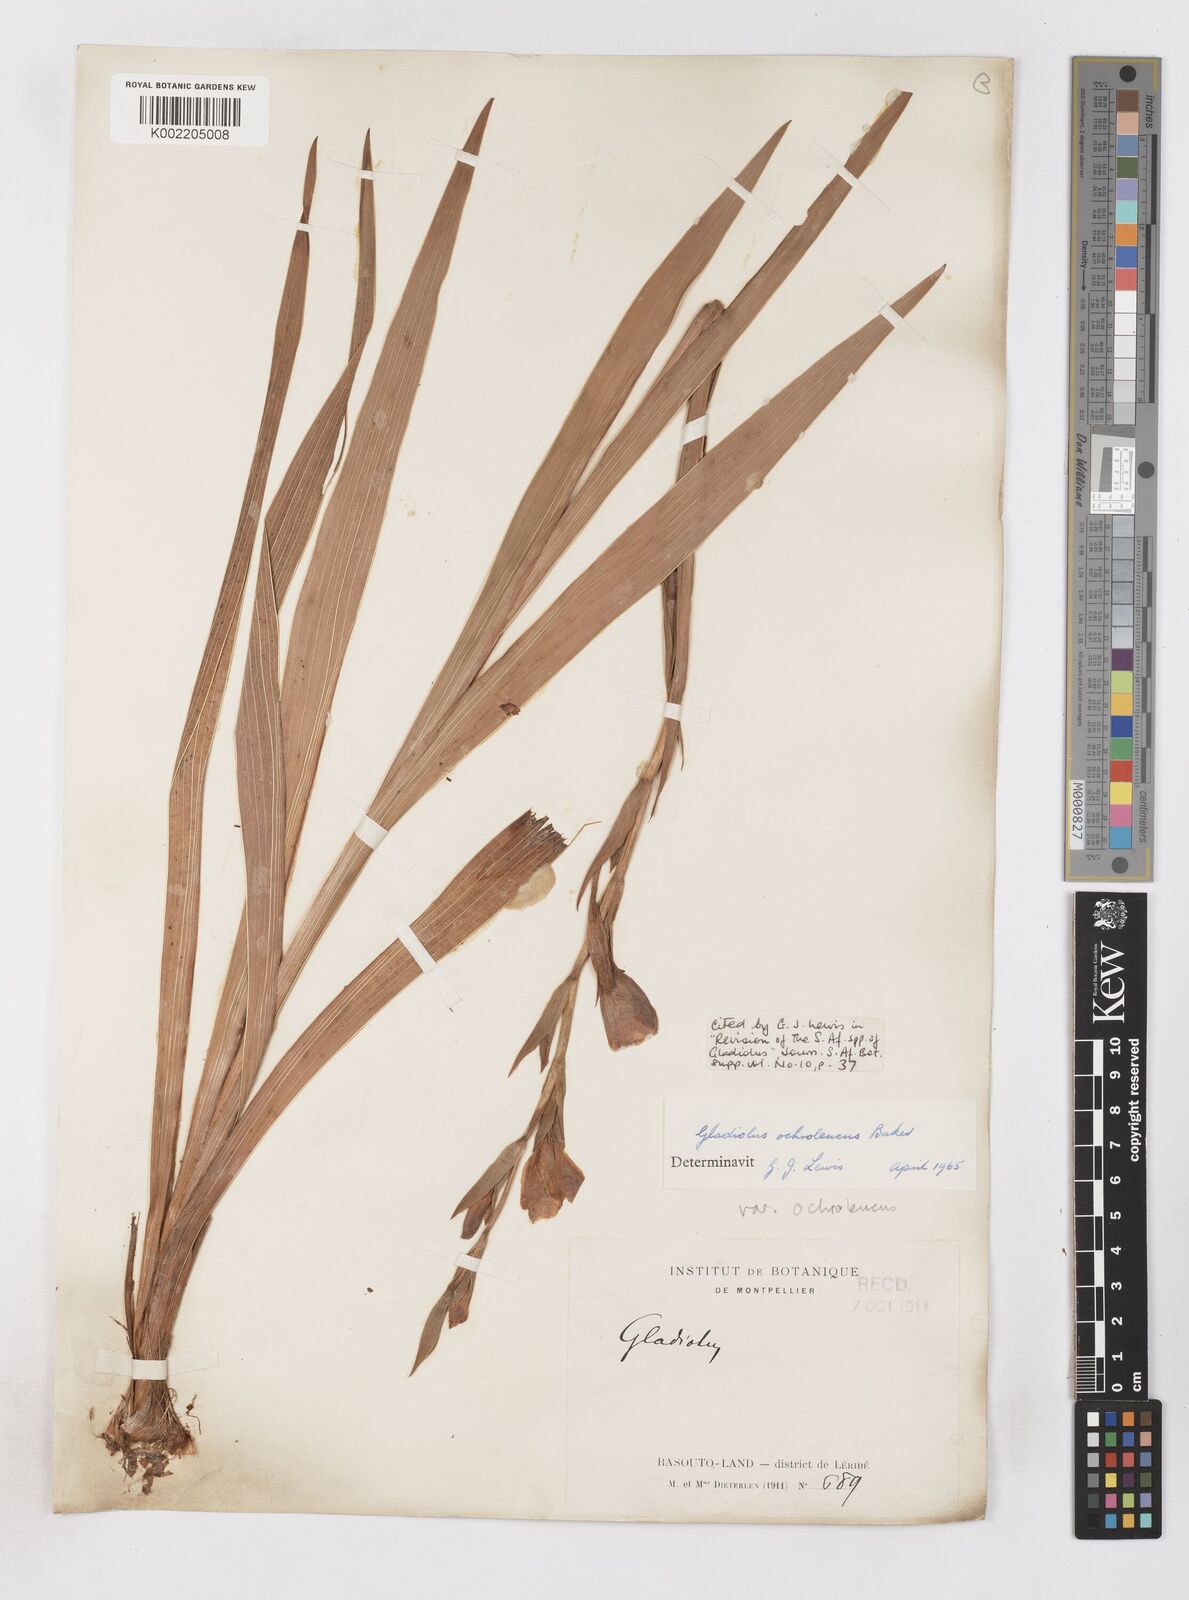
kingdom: Plantae
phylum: Tracheophyta
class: Liliopsida
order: Asparagales
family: Iridaceae
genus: Gladiolus
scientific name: Gladiolus ochroleucus
